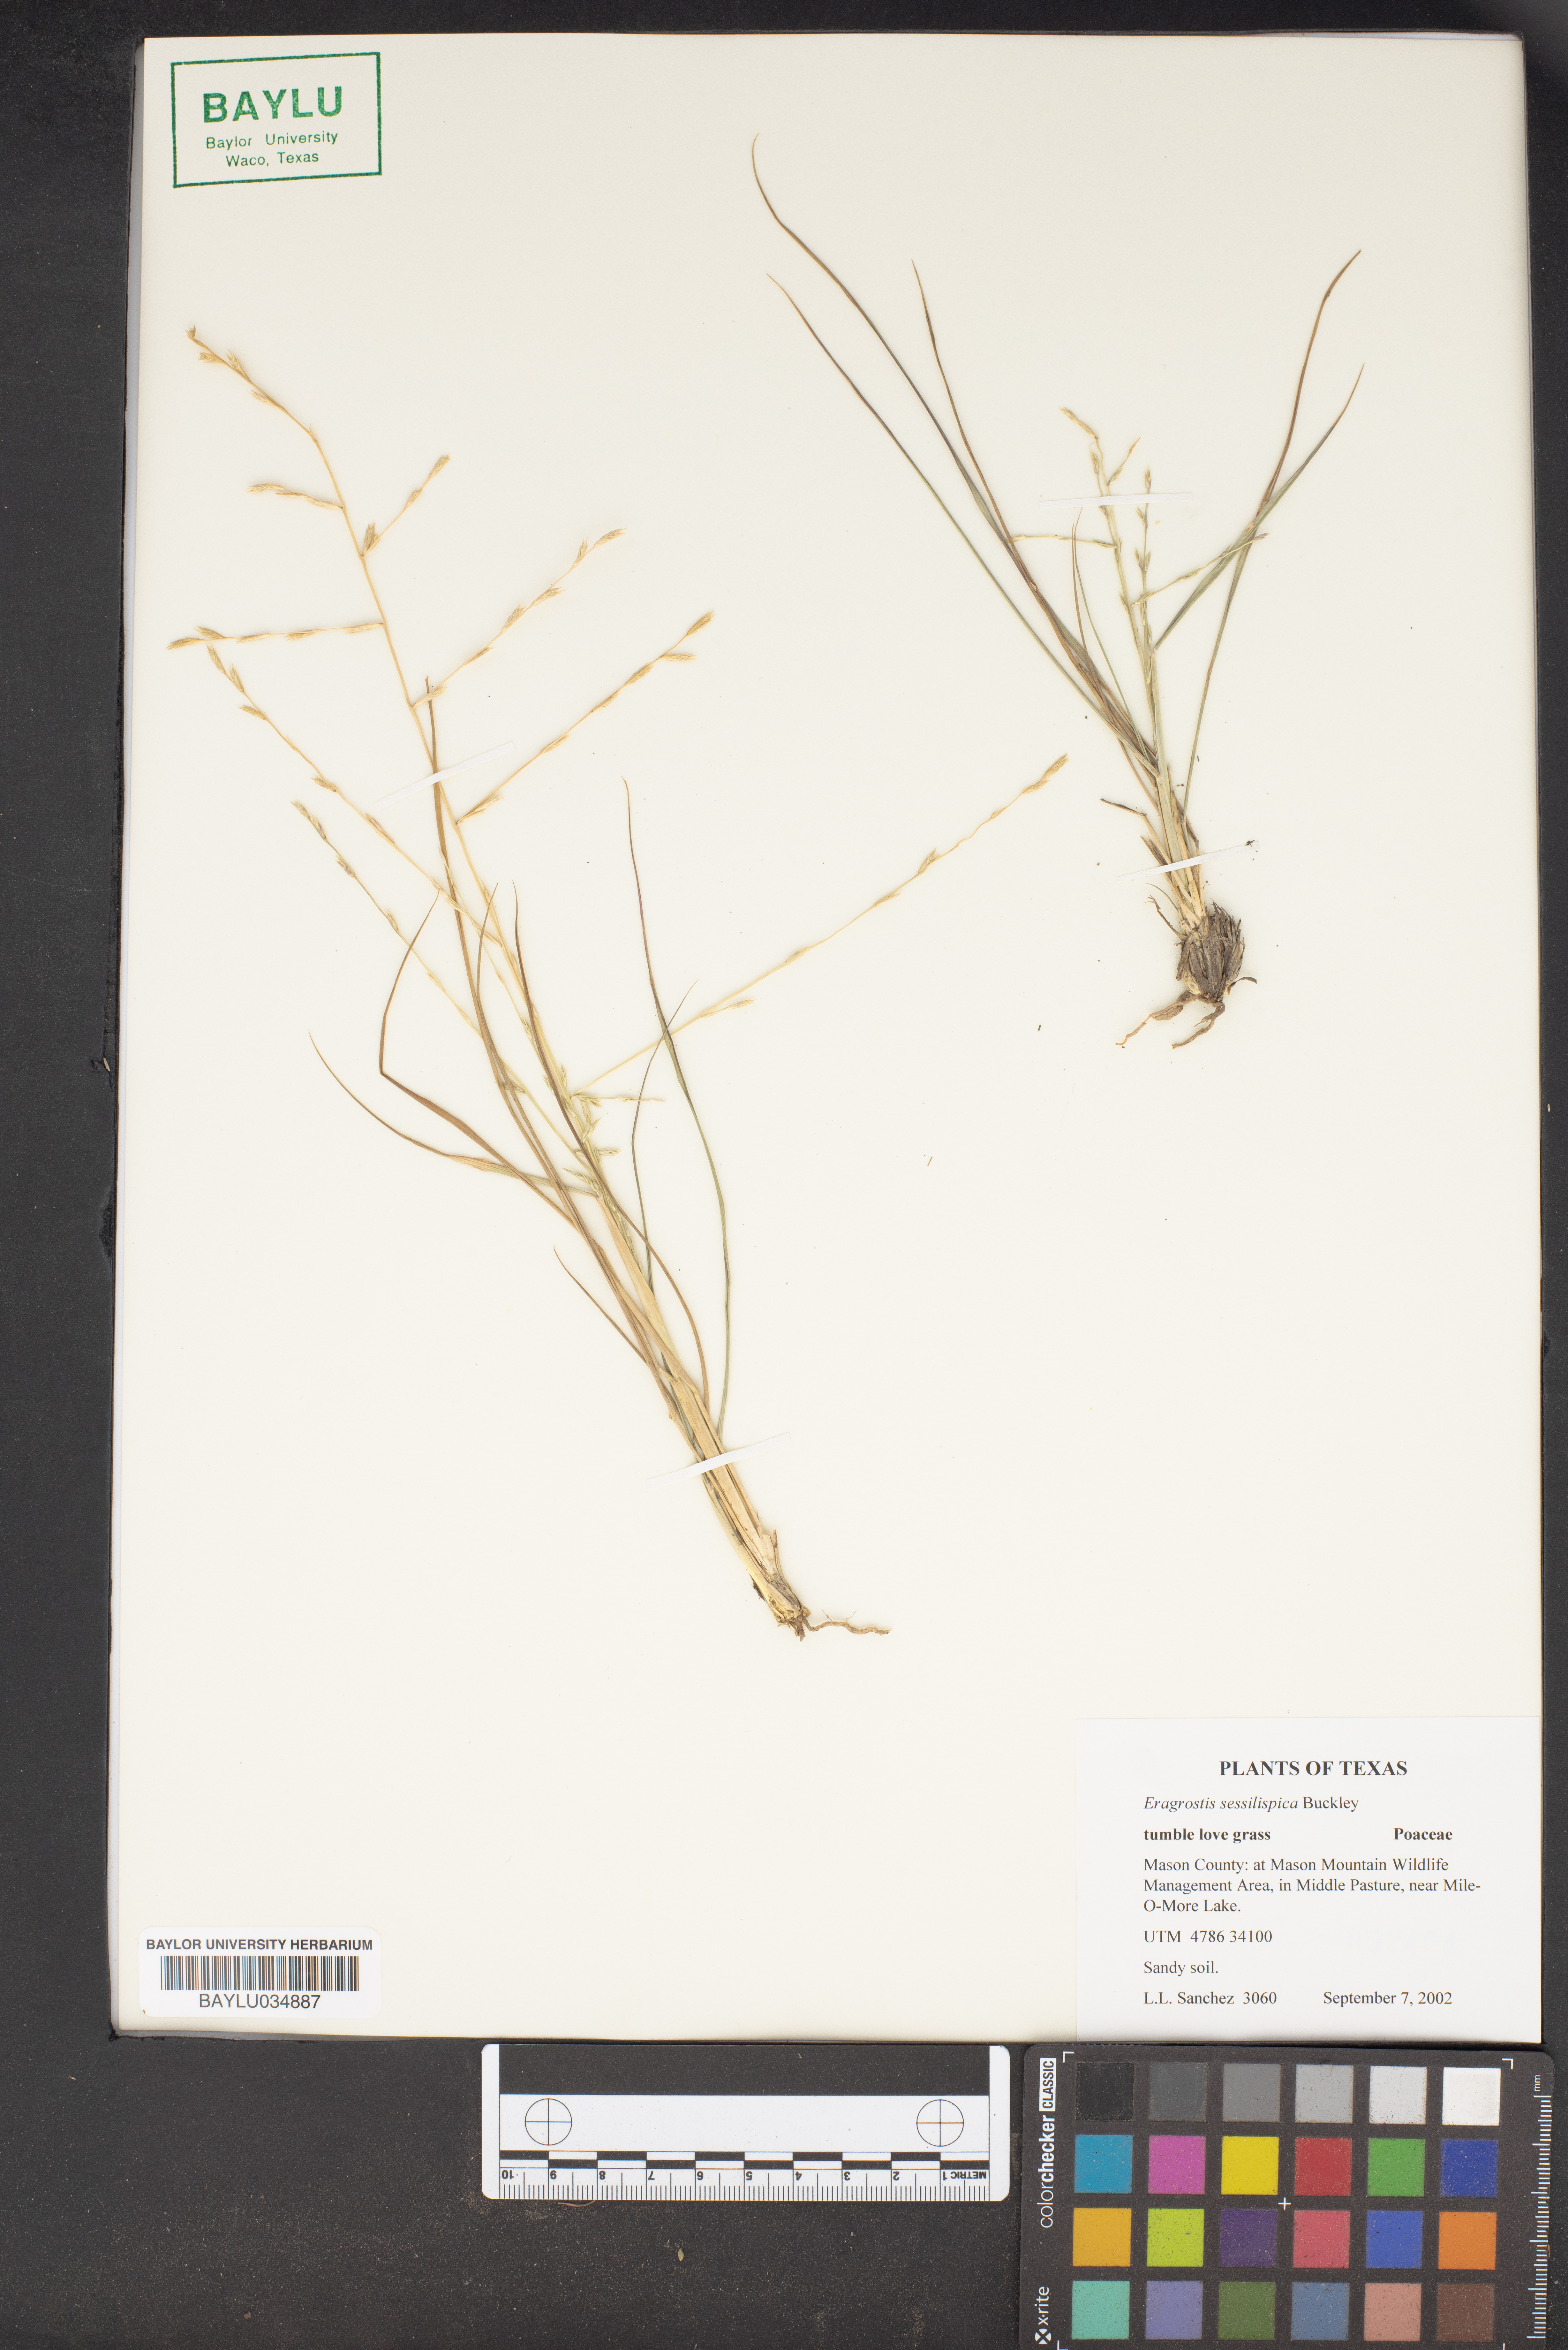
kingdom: Plantae
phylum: Tracheophyta
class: Liliopsida
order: Poales
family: Poaceae
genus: Eragrostis
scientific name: Eragrostis sessilispica
